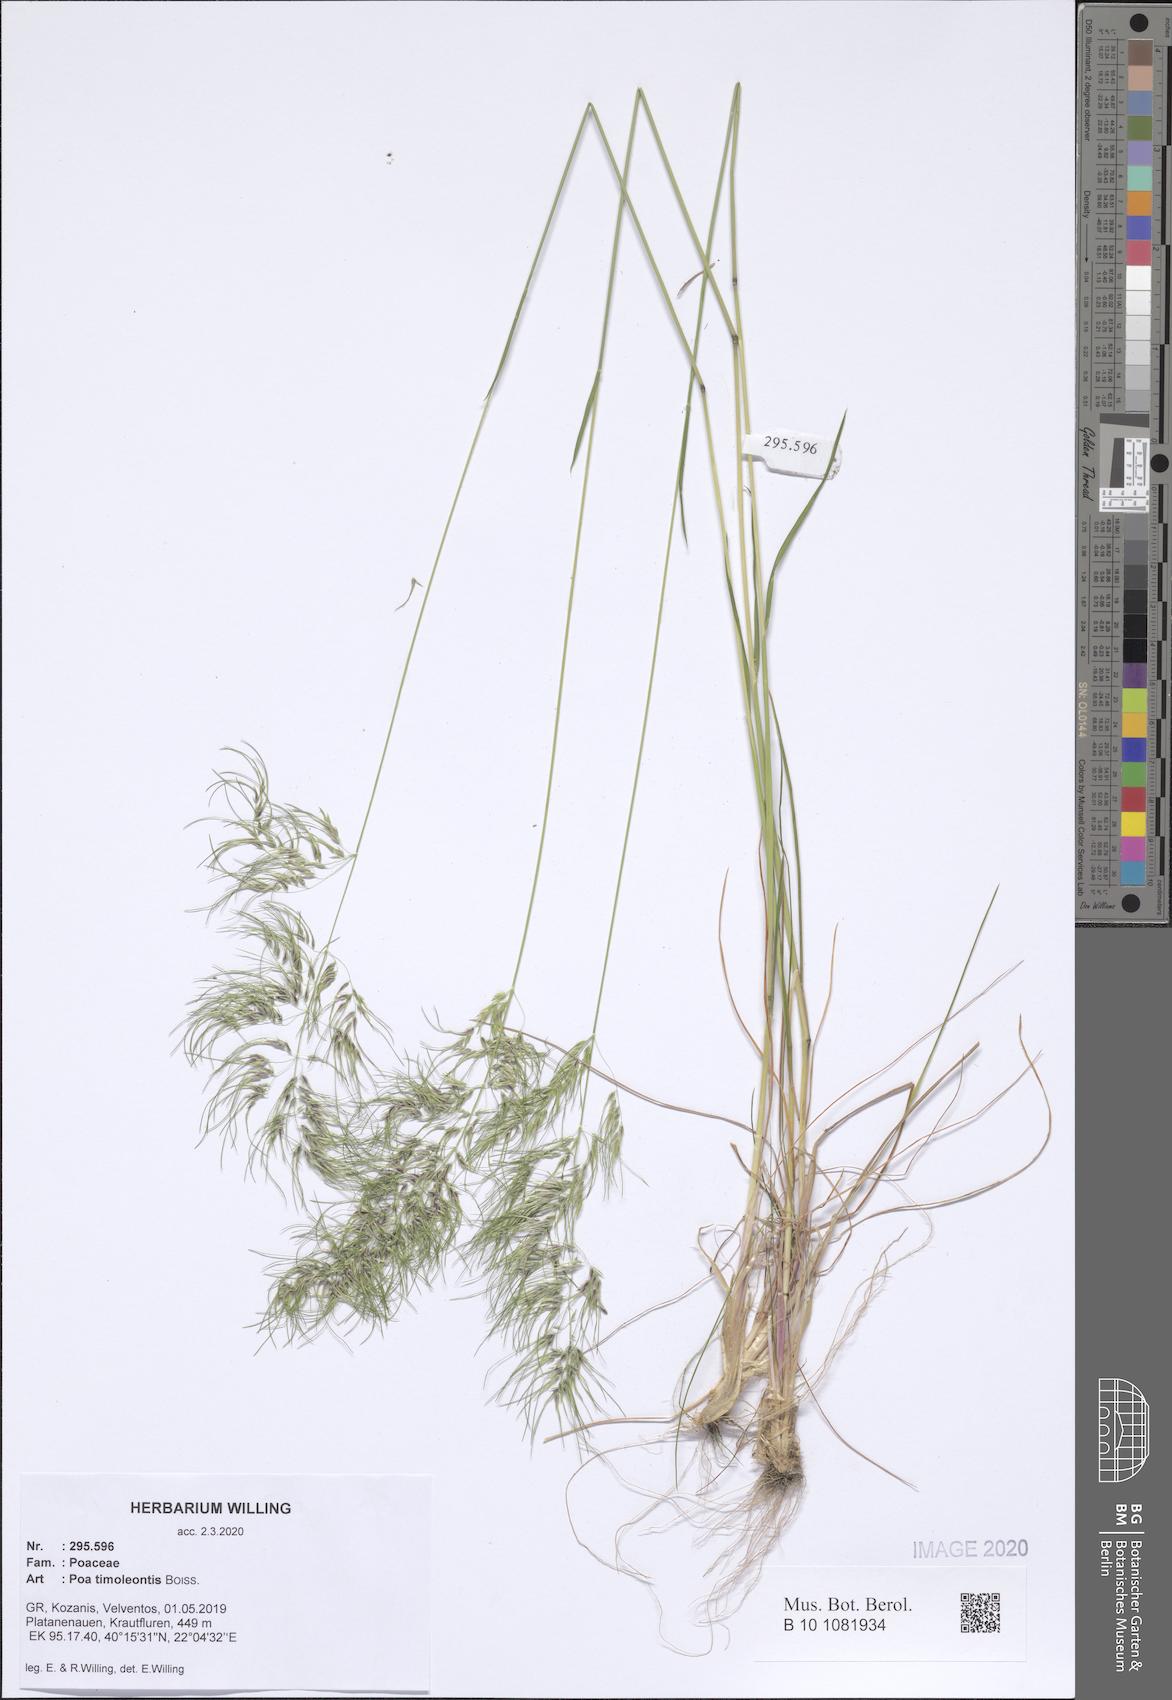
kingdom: Plantae
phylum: Tracheophyta
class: Liliopsida
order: Poales
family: Poaceae
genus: Poa
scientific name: Poa timoleontis
